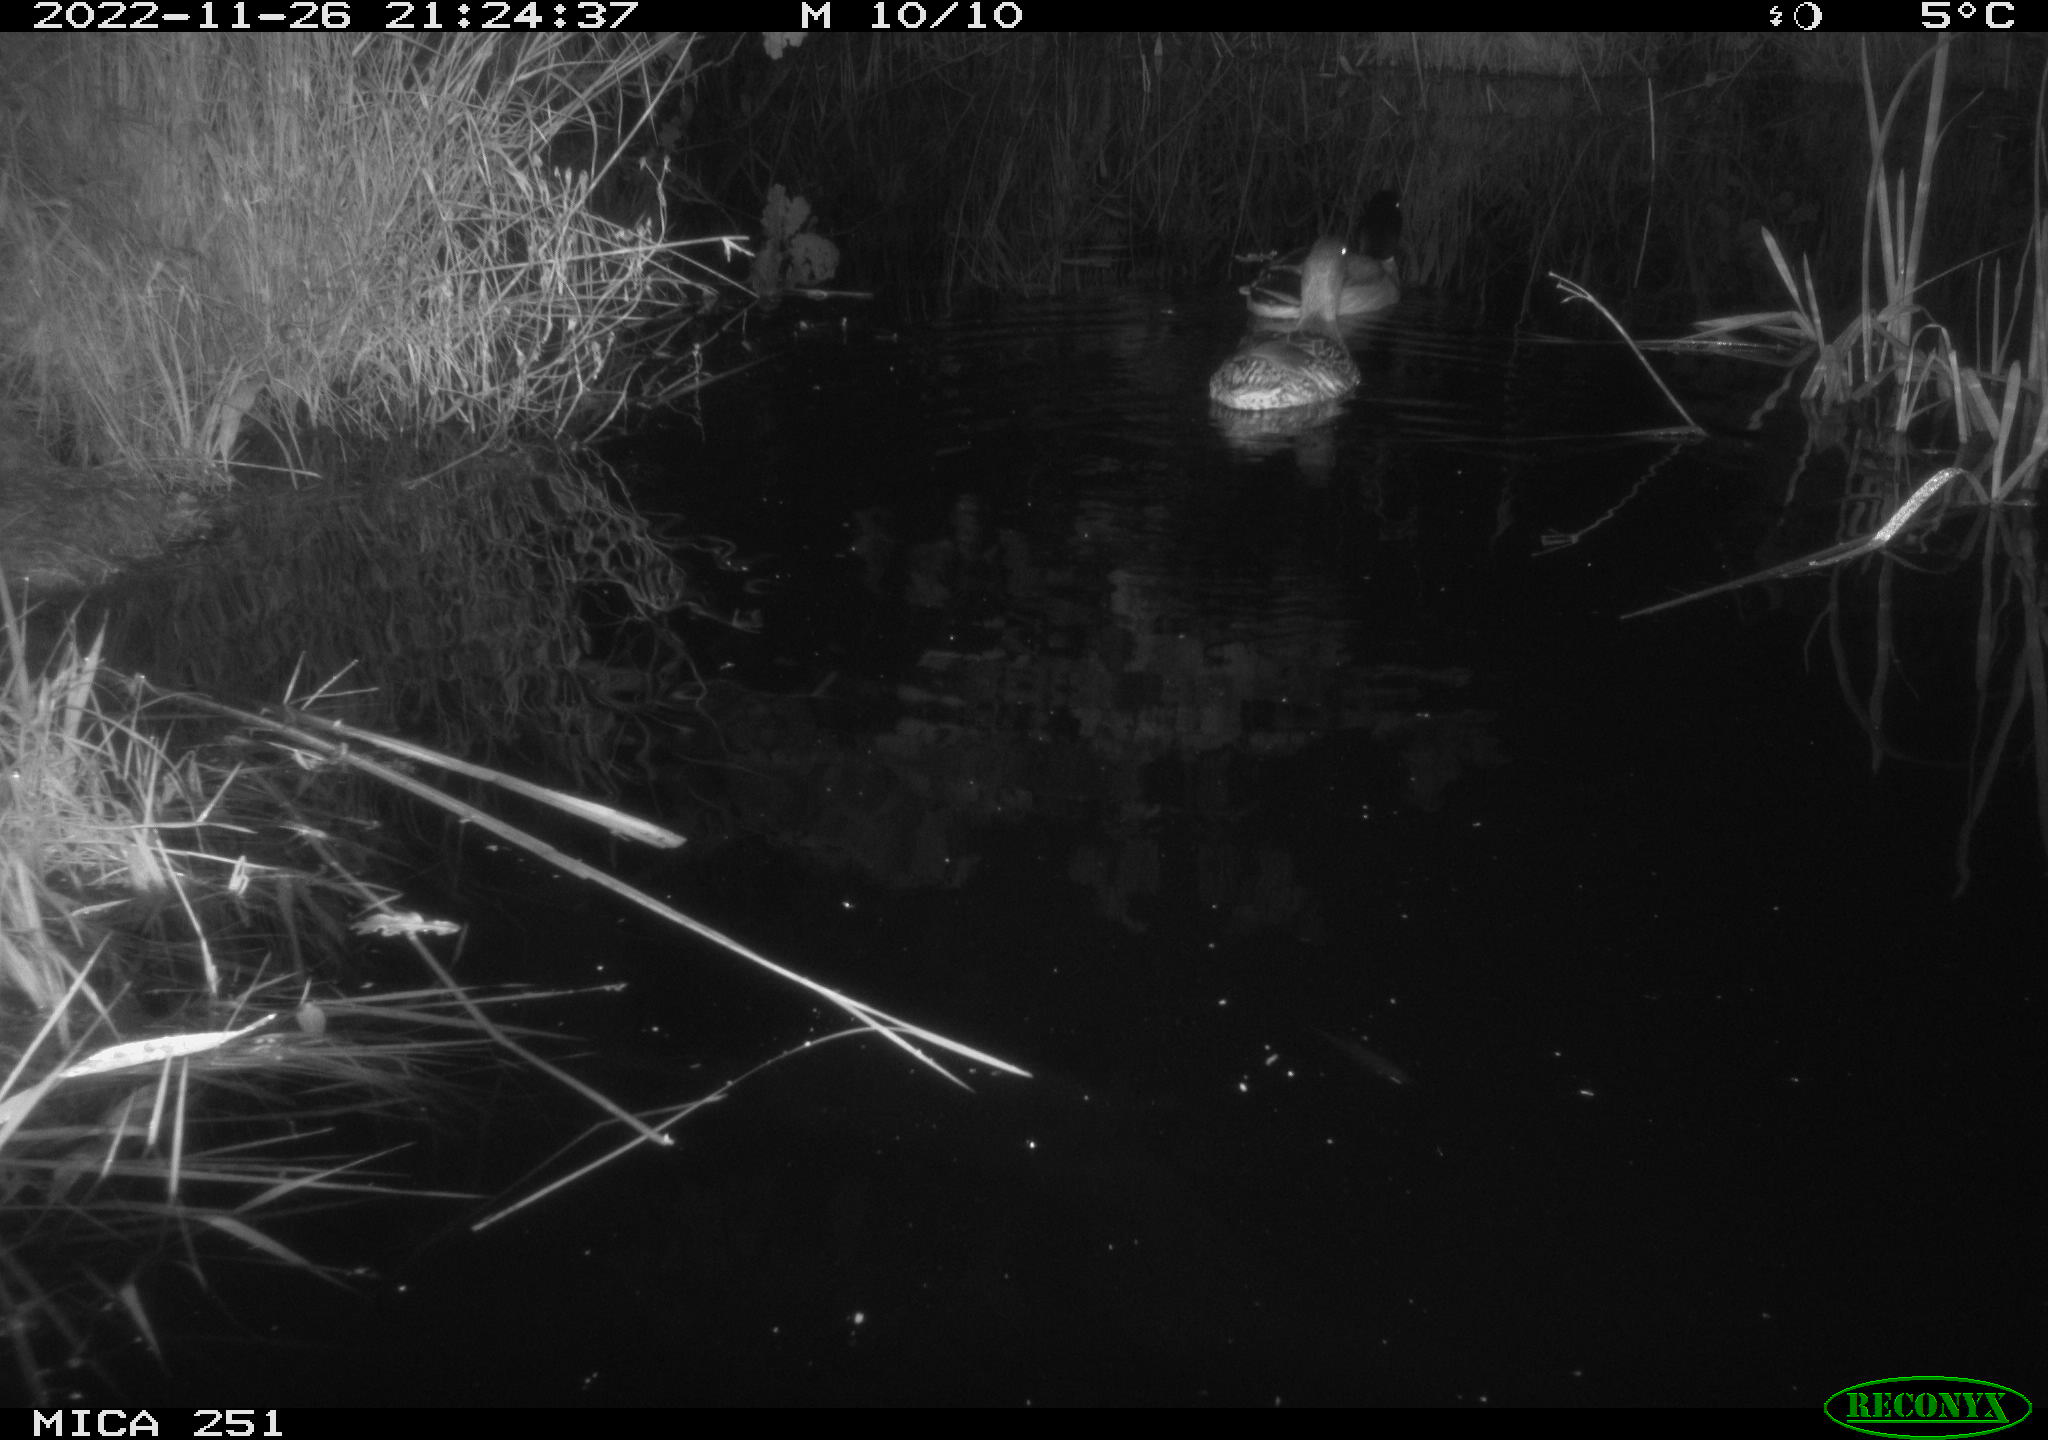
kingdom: Animalia
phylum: Chordata
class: Aves
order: Anseriformes
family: Anatidae
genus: Anas
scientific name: Anas
